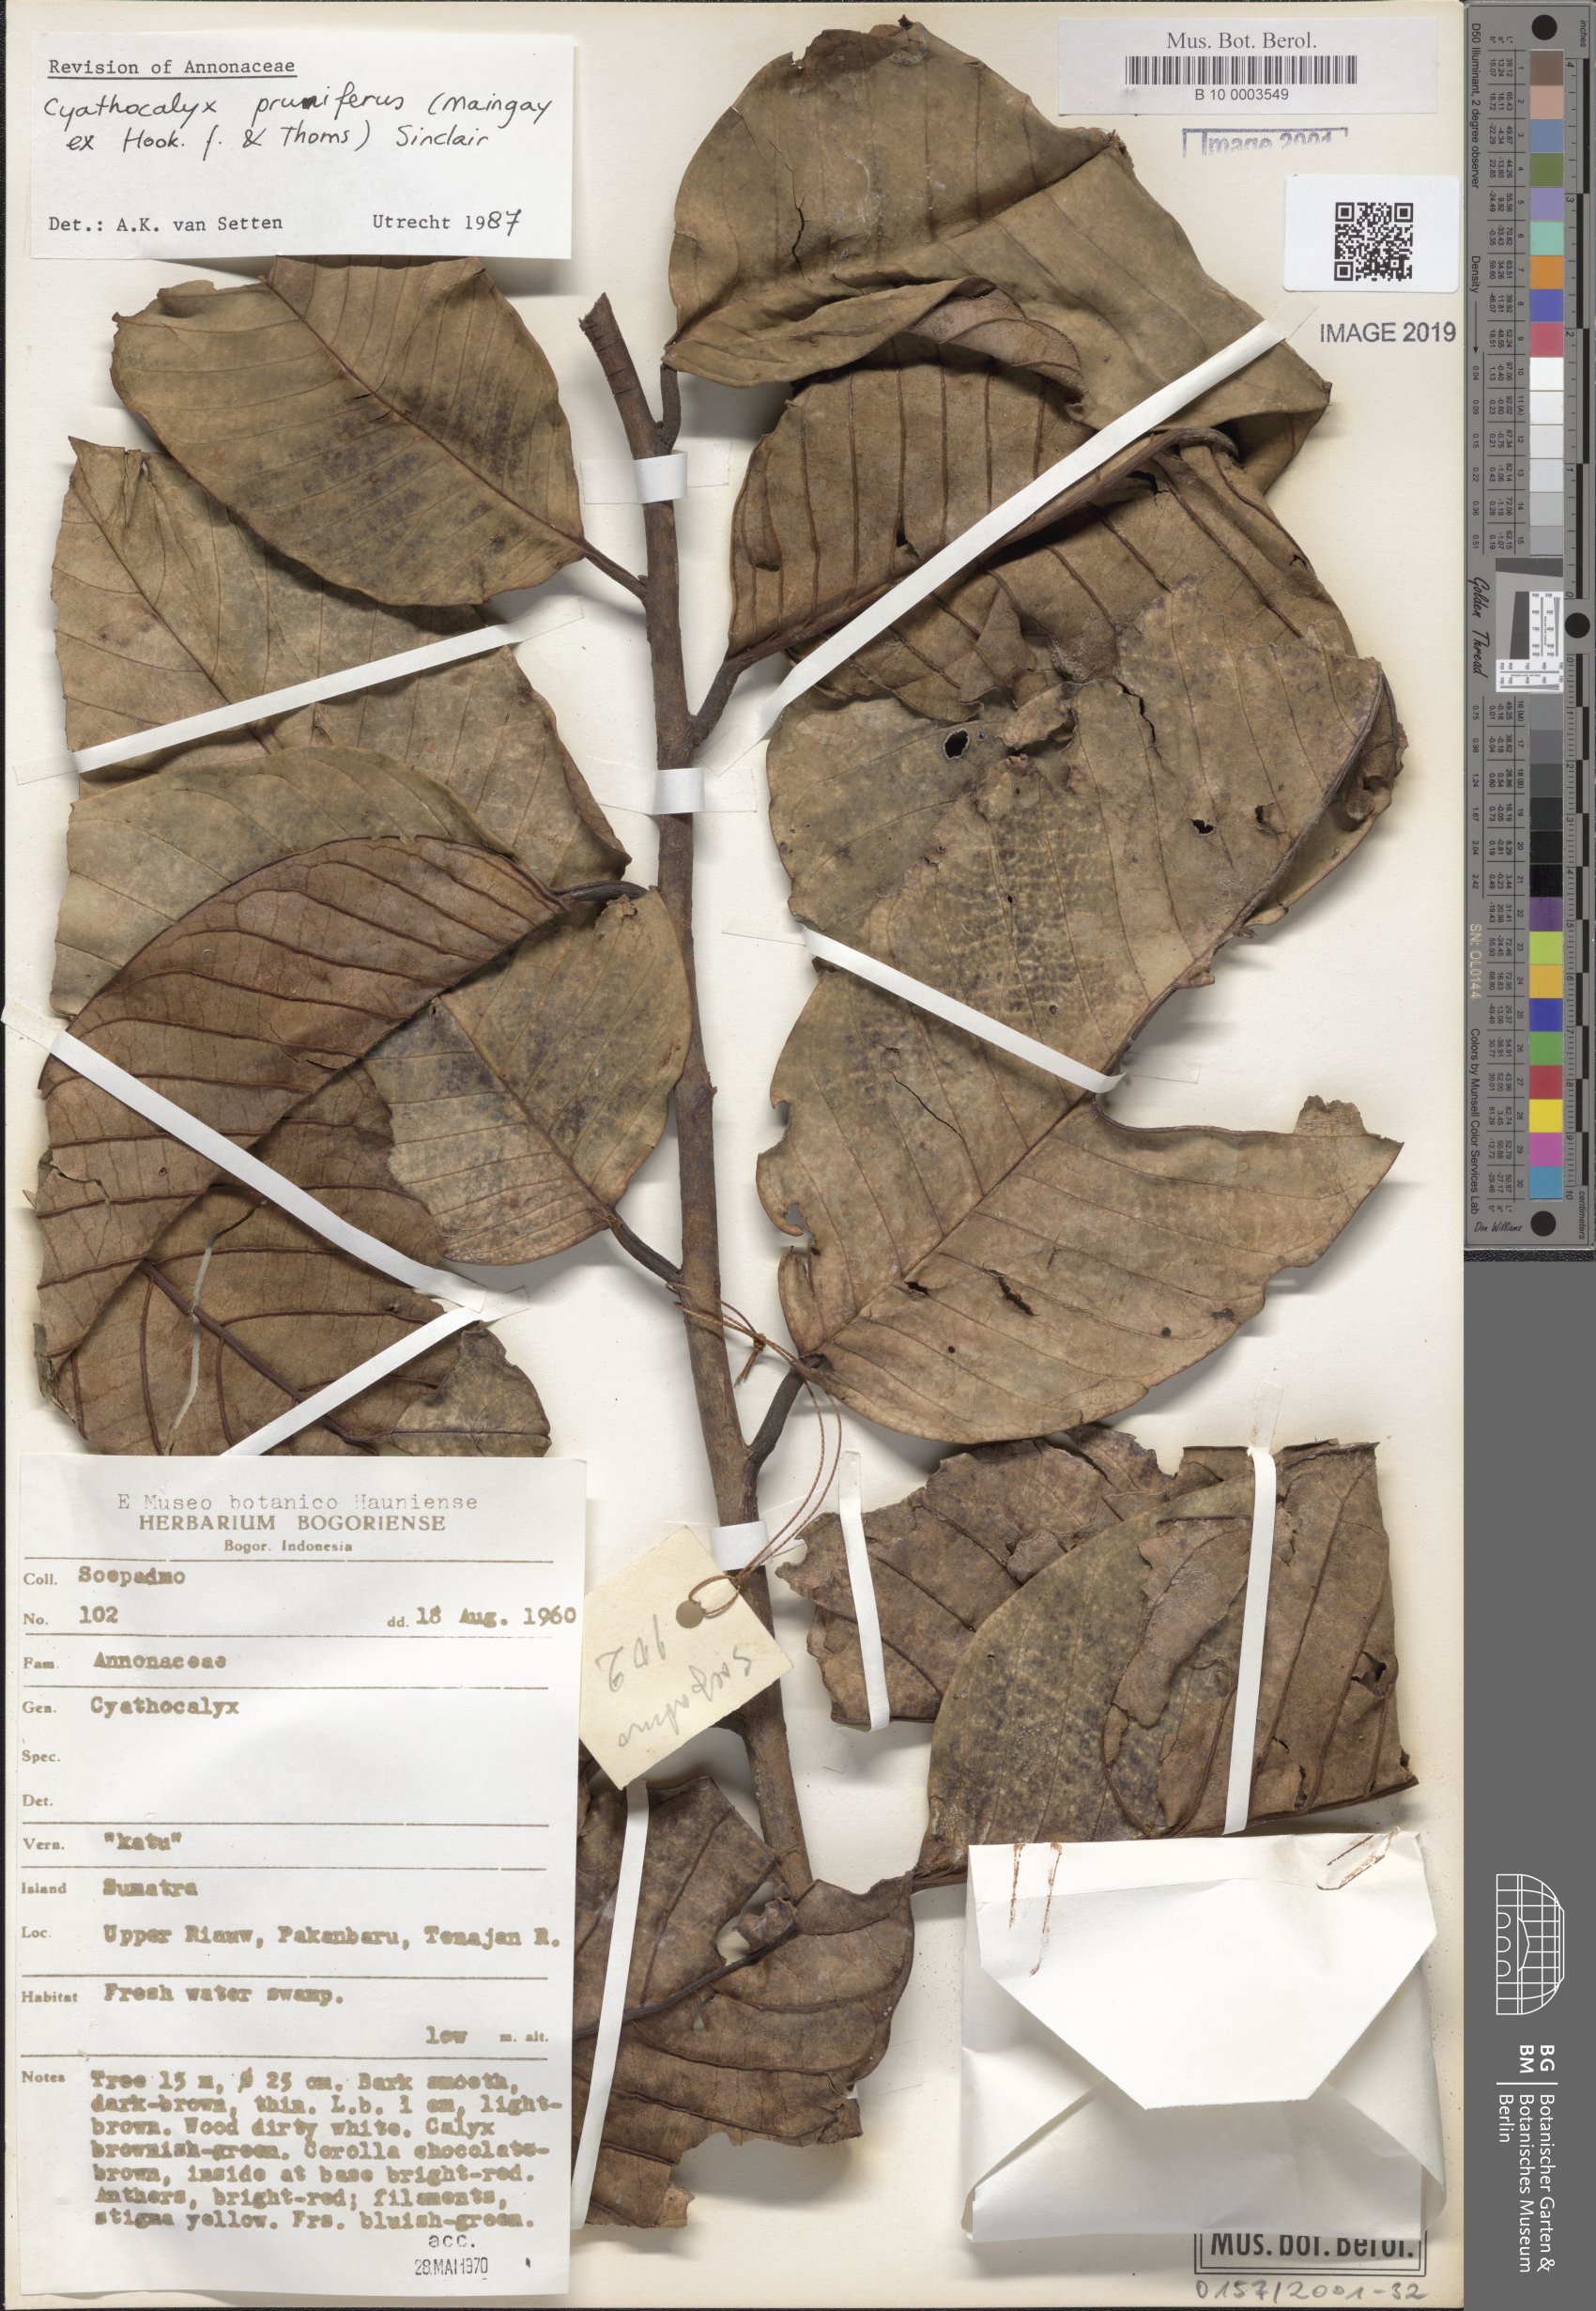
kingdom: Plantae
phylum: Tracheophyta
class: Magnoliopsida
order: Magnoliales
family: Annonaceae
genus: Drepananthus
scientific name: Drepananthus pruniferus
